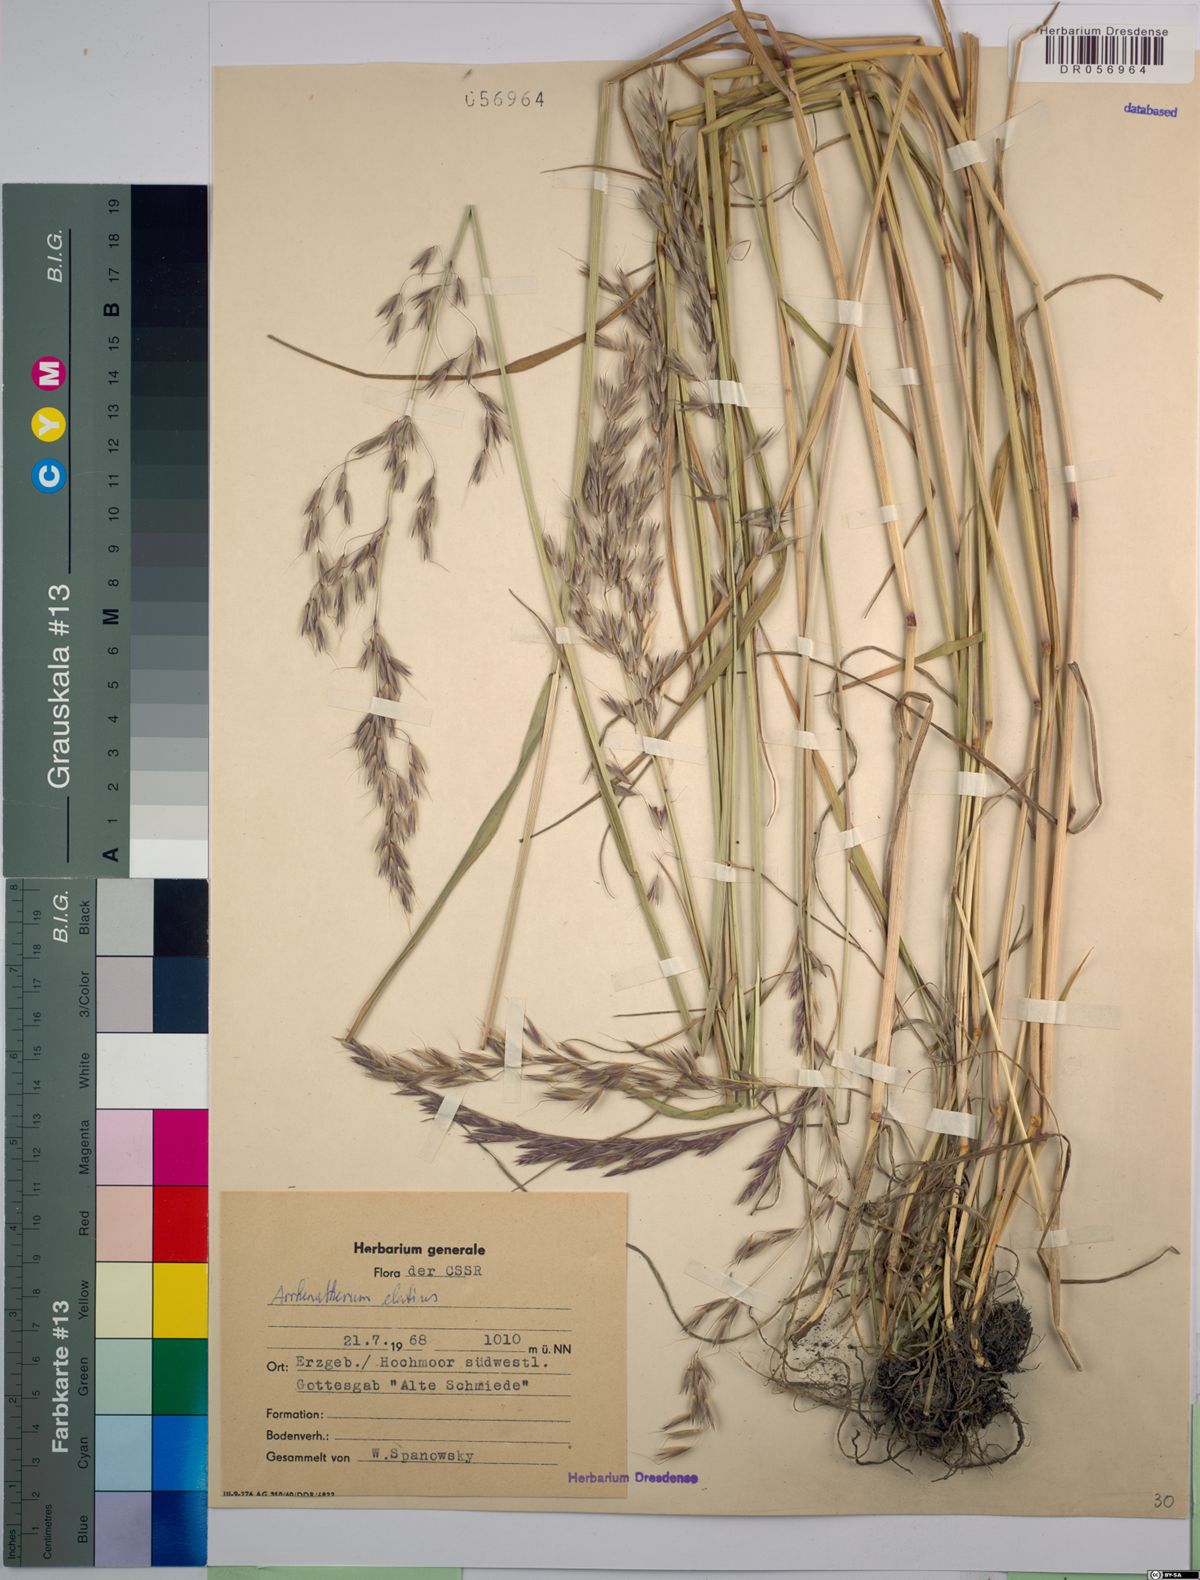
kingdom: Plantae
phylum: Tracheophyta
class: Liliopsida
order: Poales
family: Poaceae
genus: Arrhenatherum
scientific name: Arrhenatherum elatius
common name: Tall oatgrass
